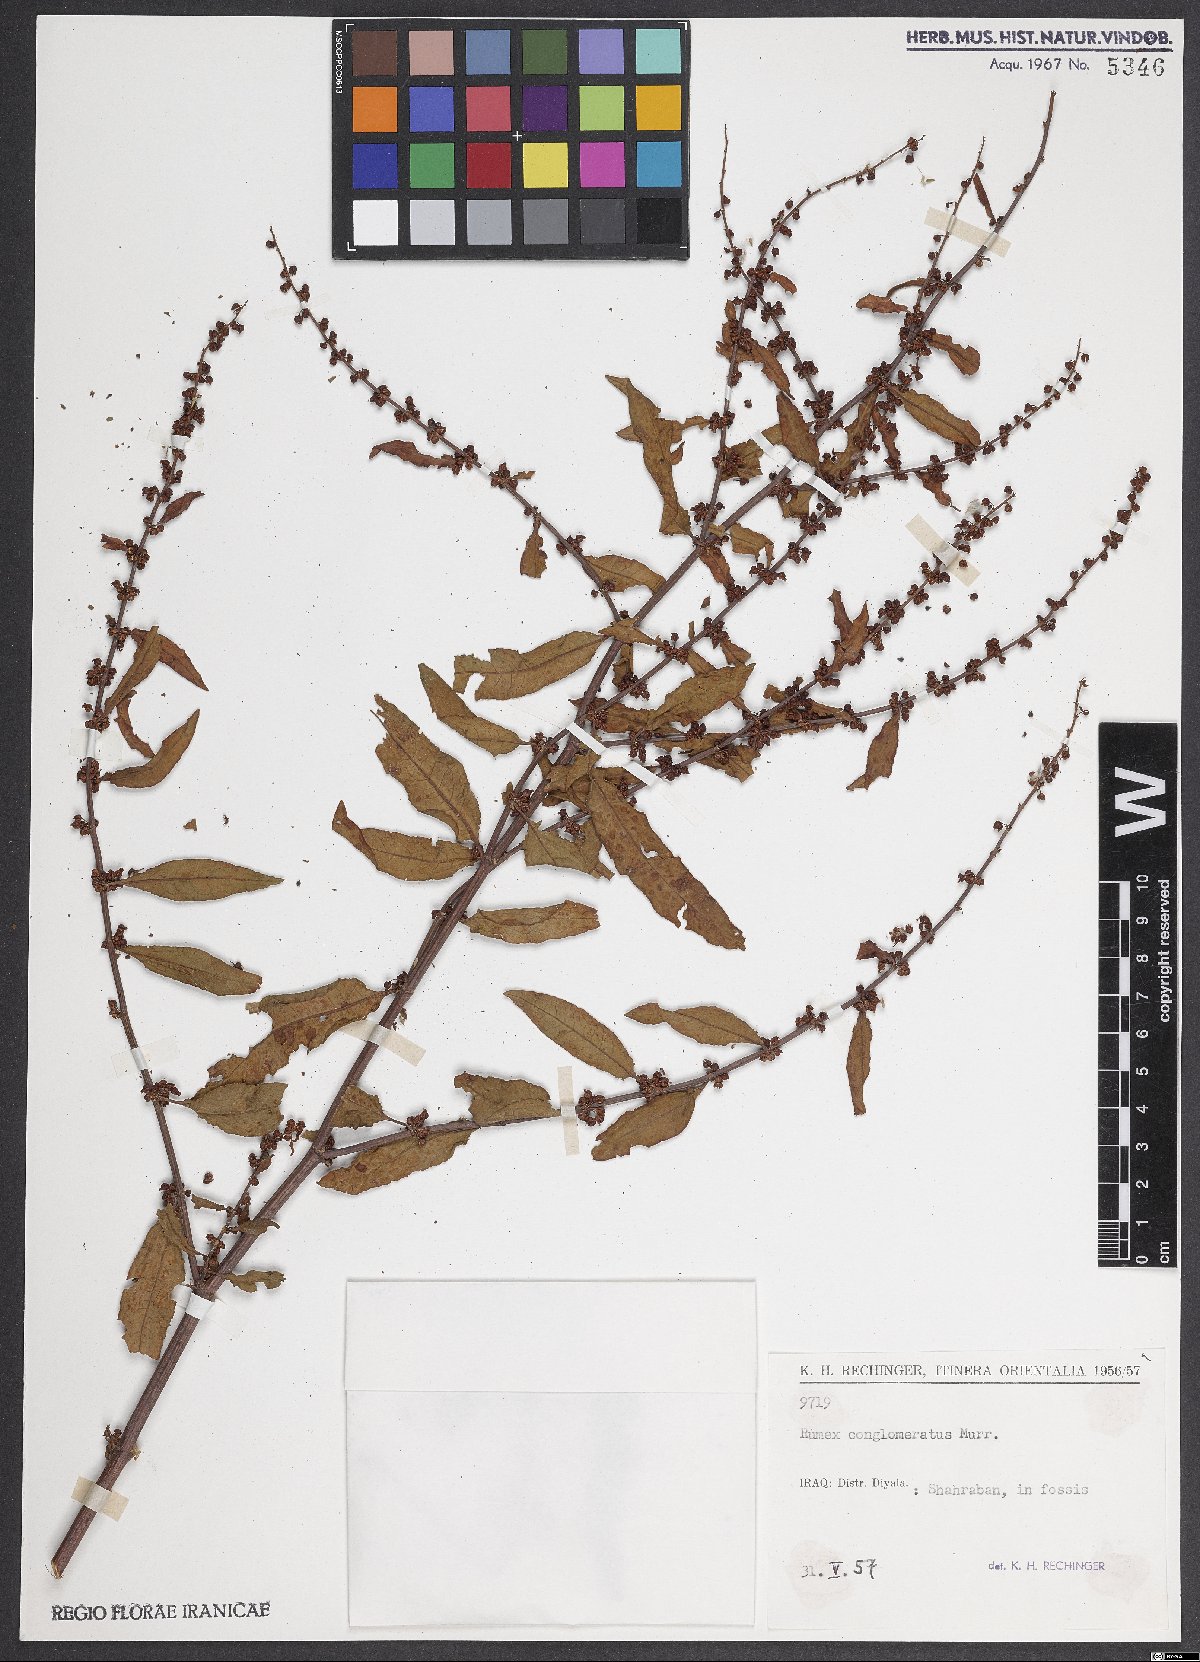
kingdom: Plantae
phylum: Tracheophyta
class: Magnoliopsida
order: Caryophyllales
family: Polygonaceae
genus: Rumex
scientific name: Rumex conglomeratus
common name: Clustered dock
